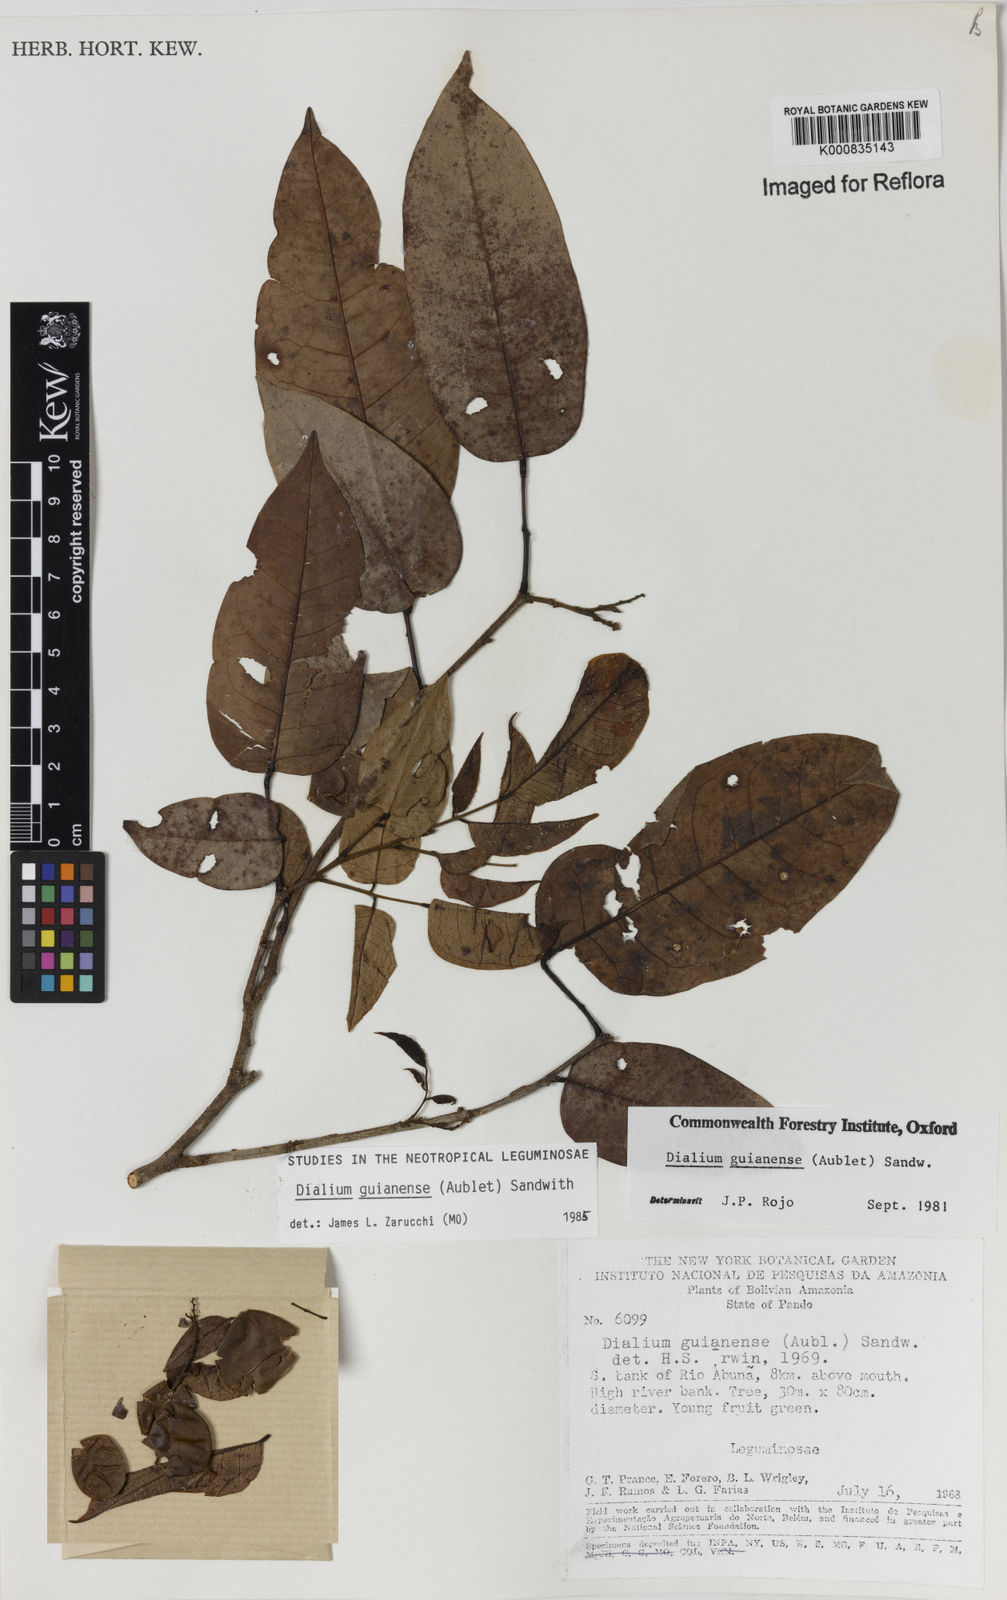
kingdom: Plantae
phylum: Tracheophyta
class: Magnoliopsida
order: Fabales
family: Fabaceae
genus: Dialium
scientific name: Dialium guianense
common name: Ironwood
